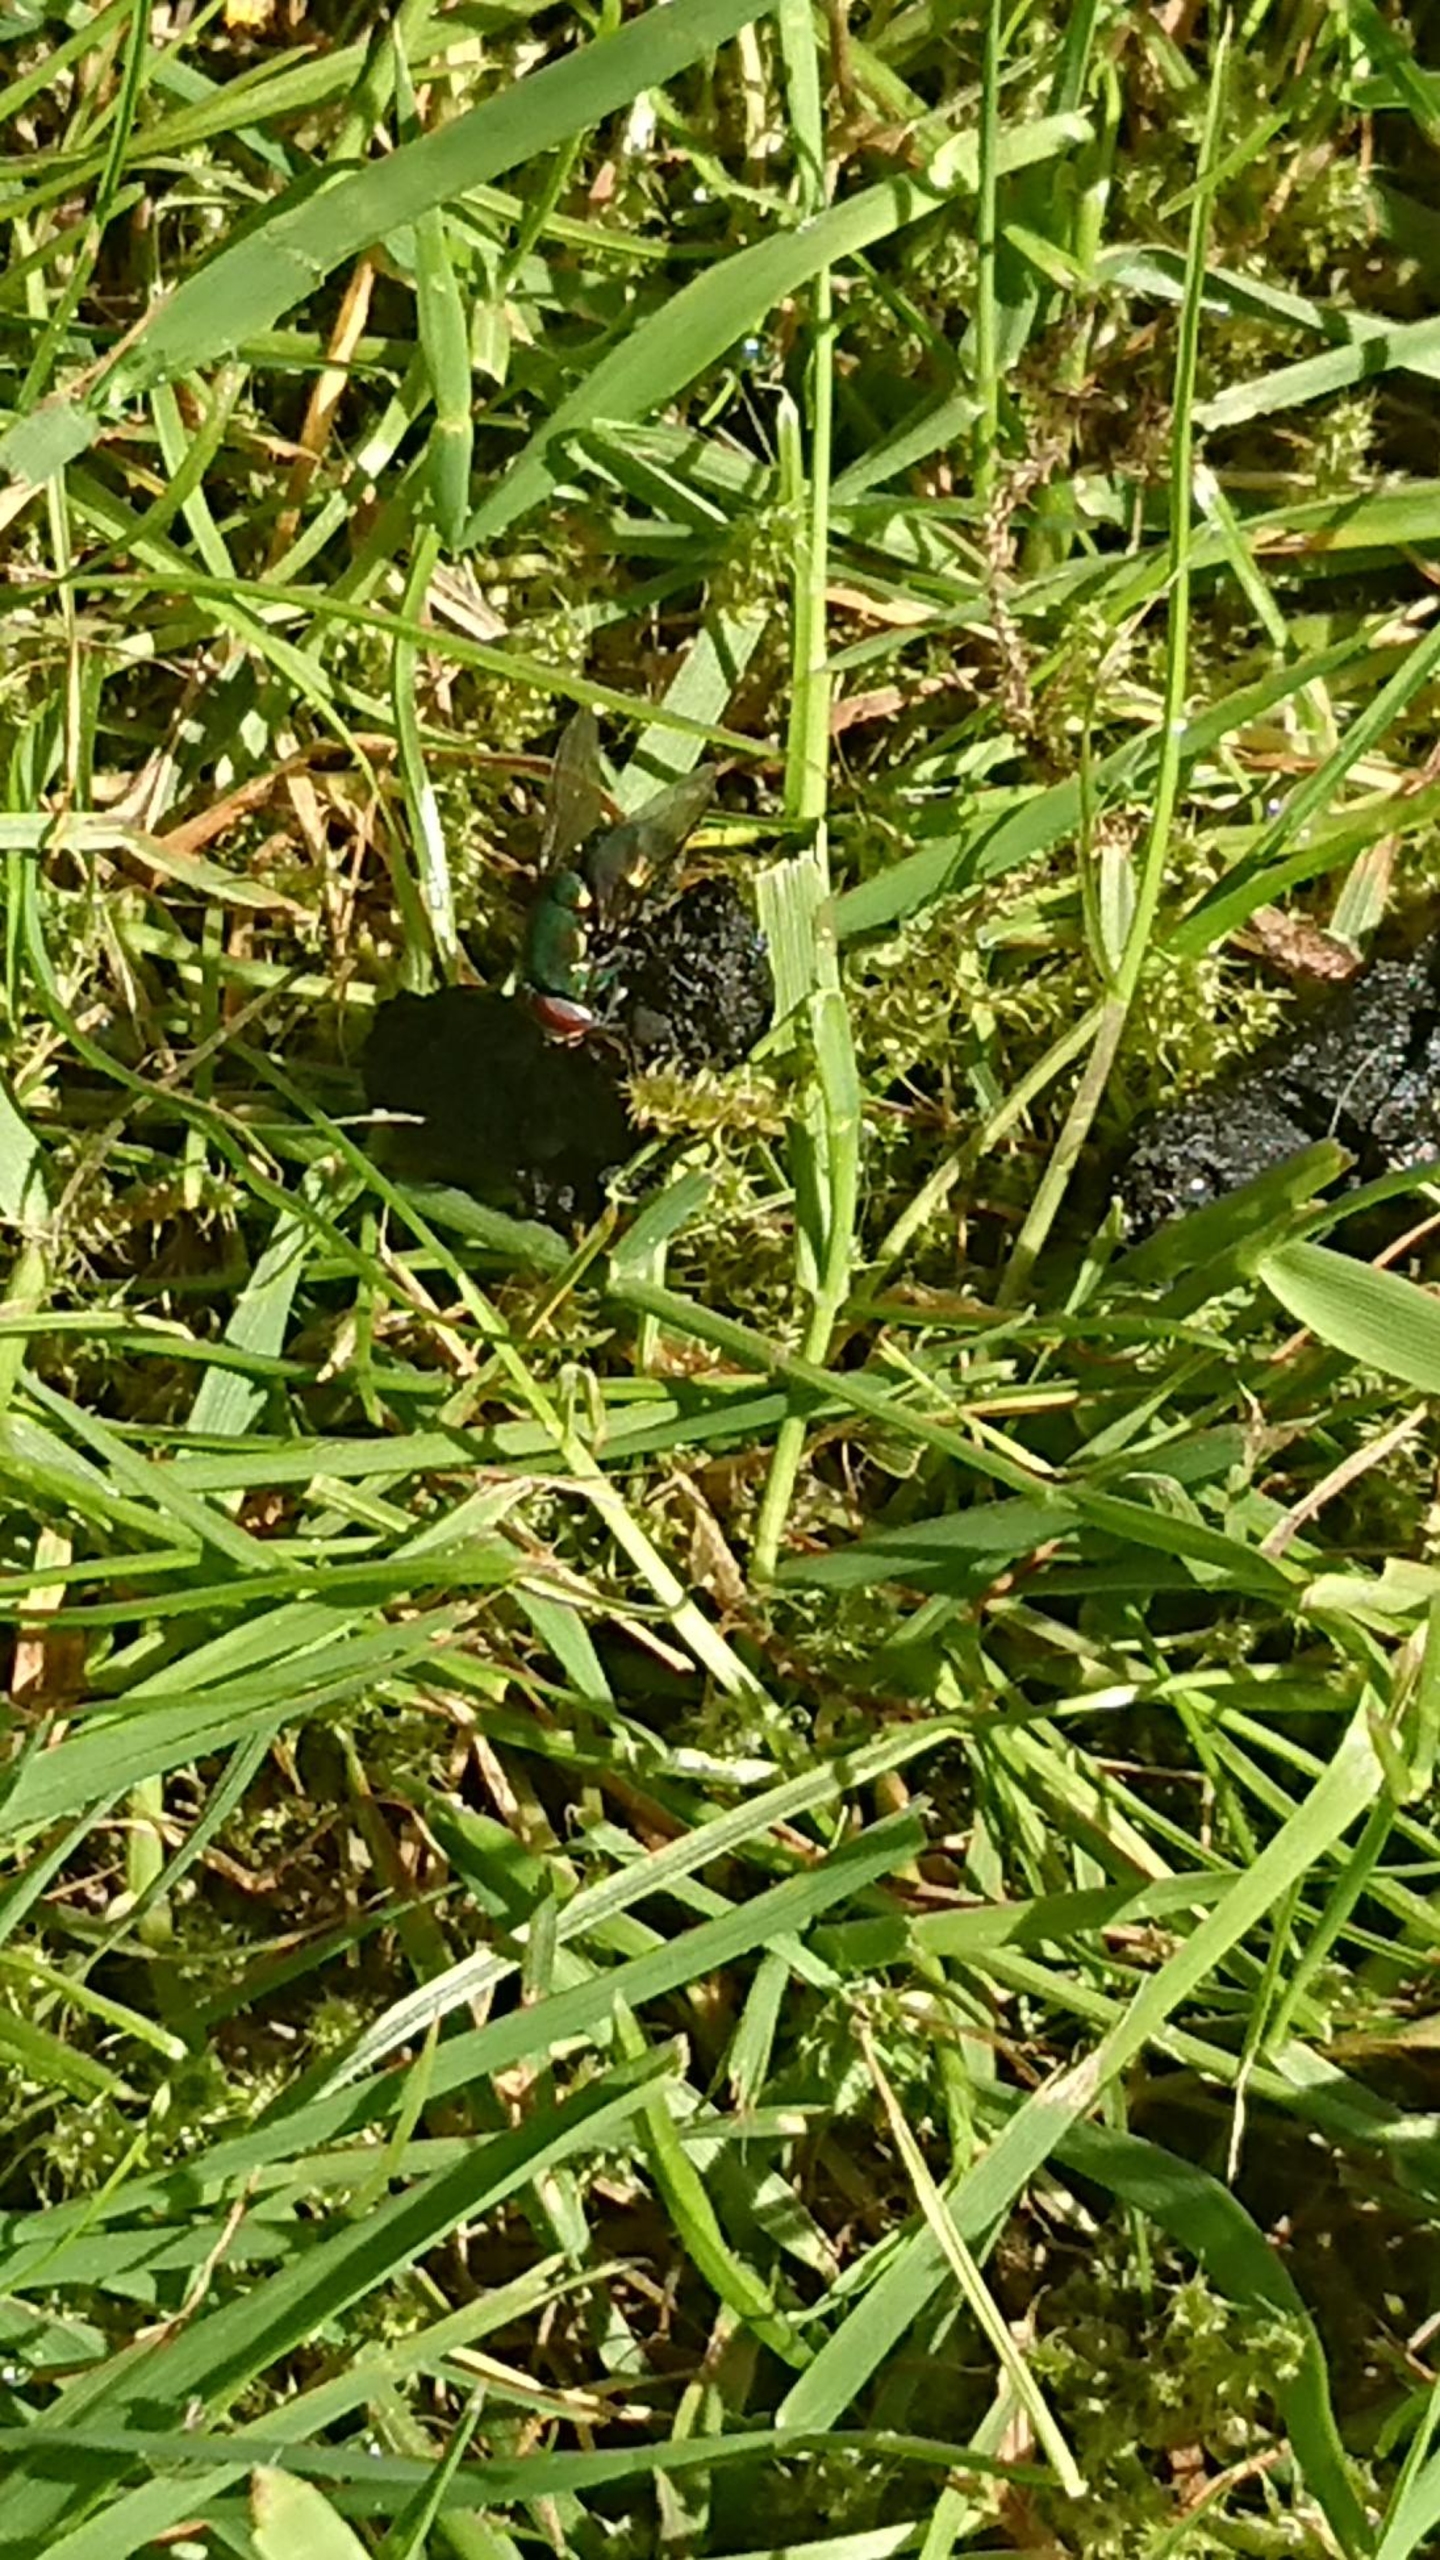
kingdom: Animalia
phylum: Arthropoda
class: Insecta
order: Diptera
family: Calliphoridae
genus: Lucilia
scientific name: Lucilia
